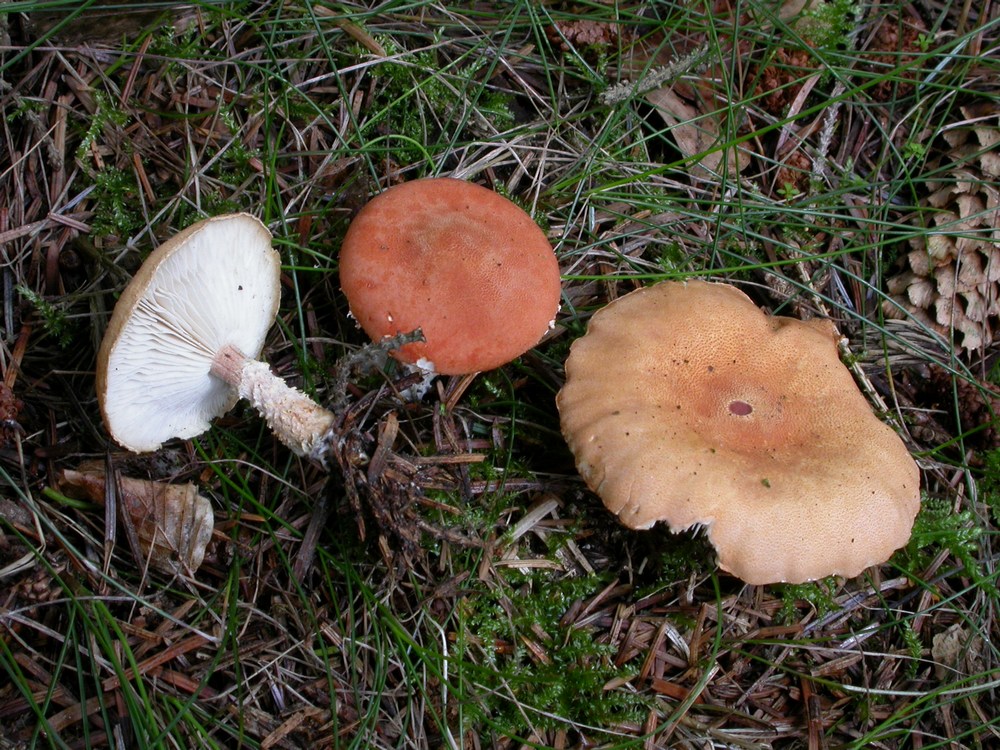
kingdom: Fungi
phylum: Basidiomycota
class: Agaricomycetes
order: Agaricales
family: Agaricaceae
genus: Cystodermella
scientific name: Cystodermella granulosa
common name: kliddet grynhat
